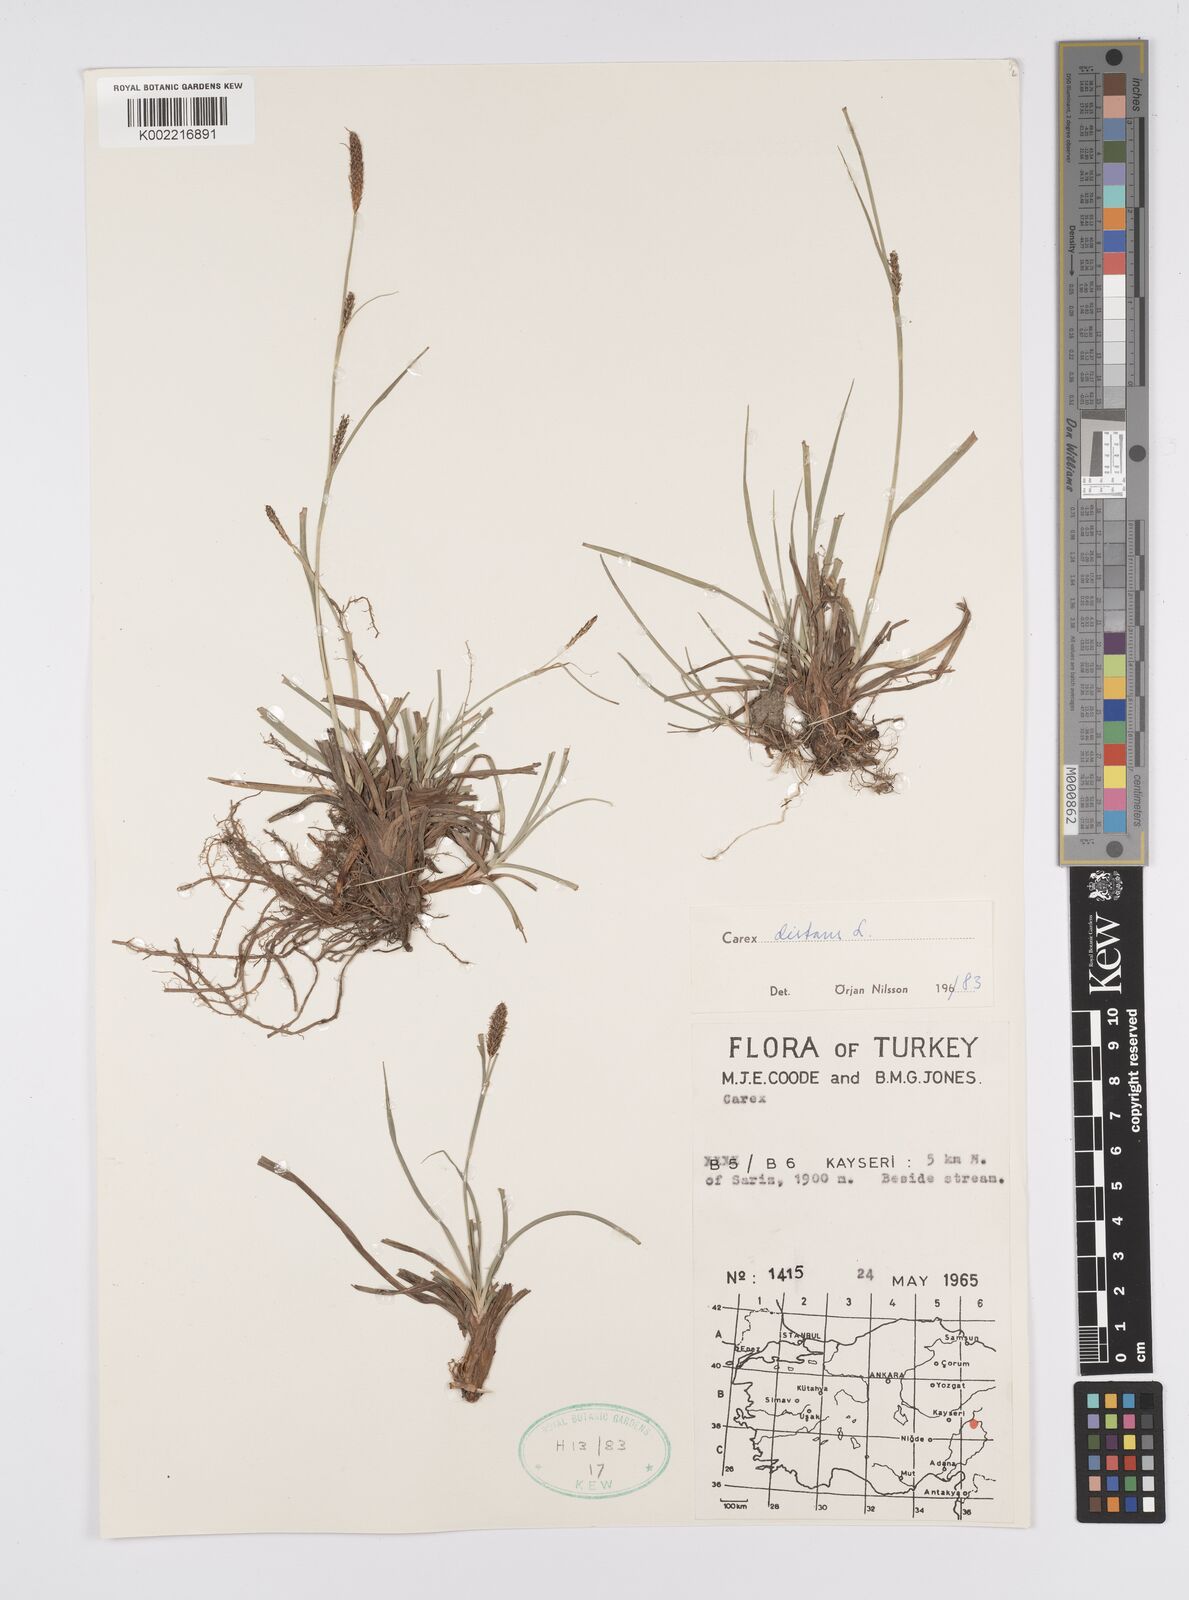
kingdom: Plantae
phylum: Tracheophyta
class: Liliopsida
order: Poales
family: Cyperaceae
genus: Carex
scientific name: Carex distans
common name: Distant sedge
